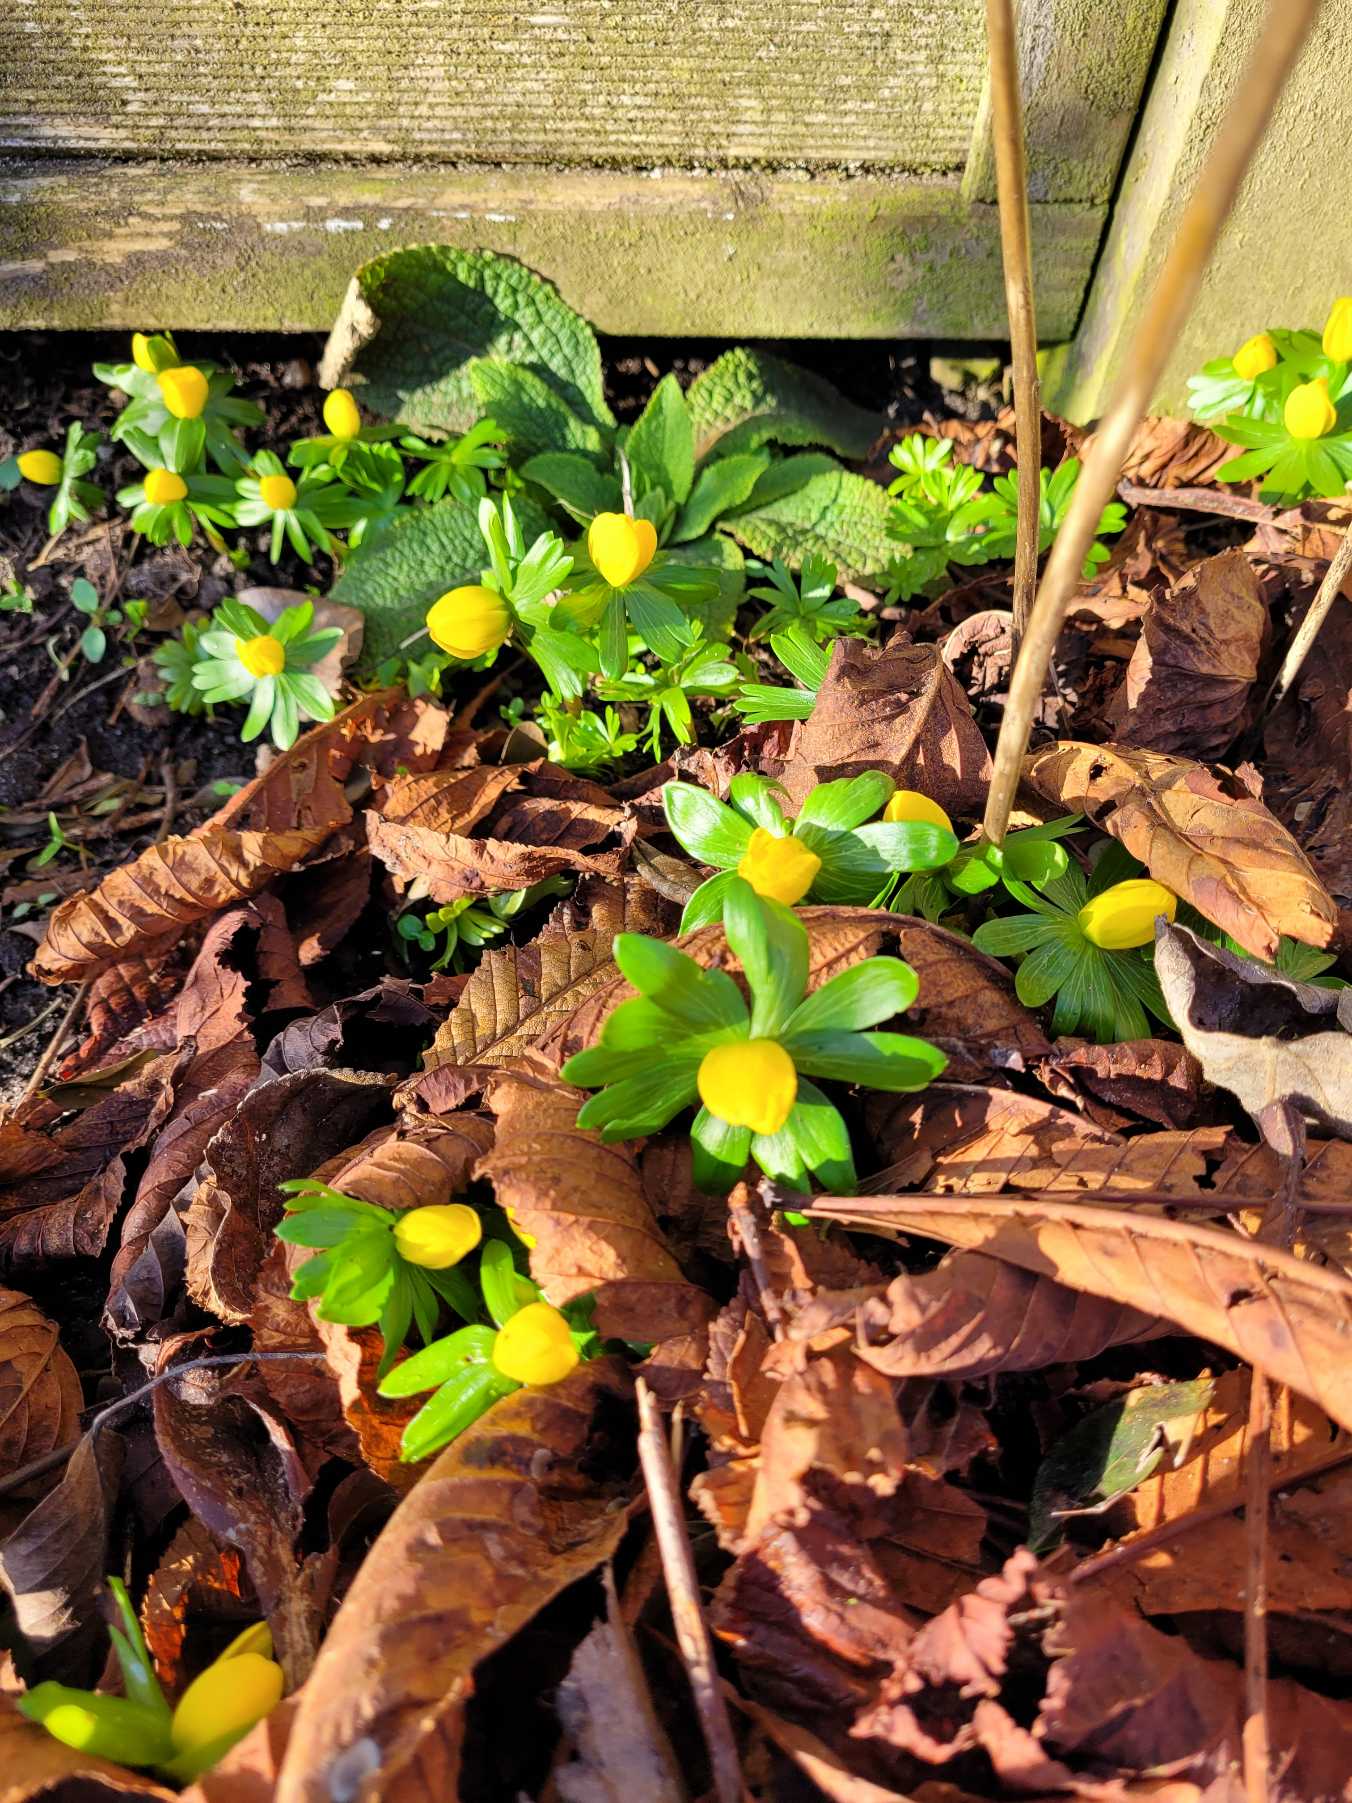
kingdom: Plantae
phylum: Tracheophyta
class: Magnoliopsida
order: Ranunculales
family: Ranunculaceae
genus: Eranthis
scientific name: Eranthis hyemalis
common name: Erantis
